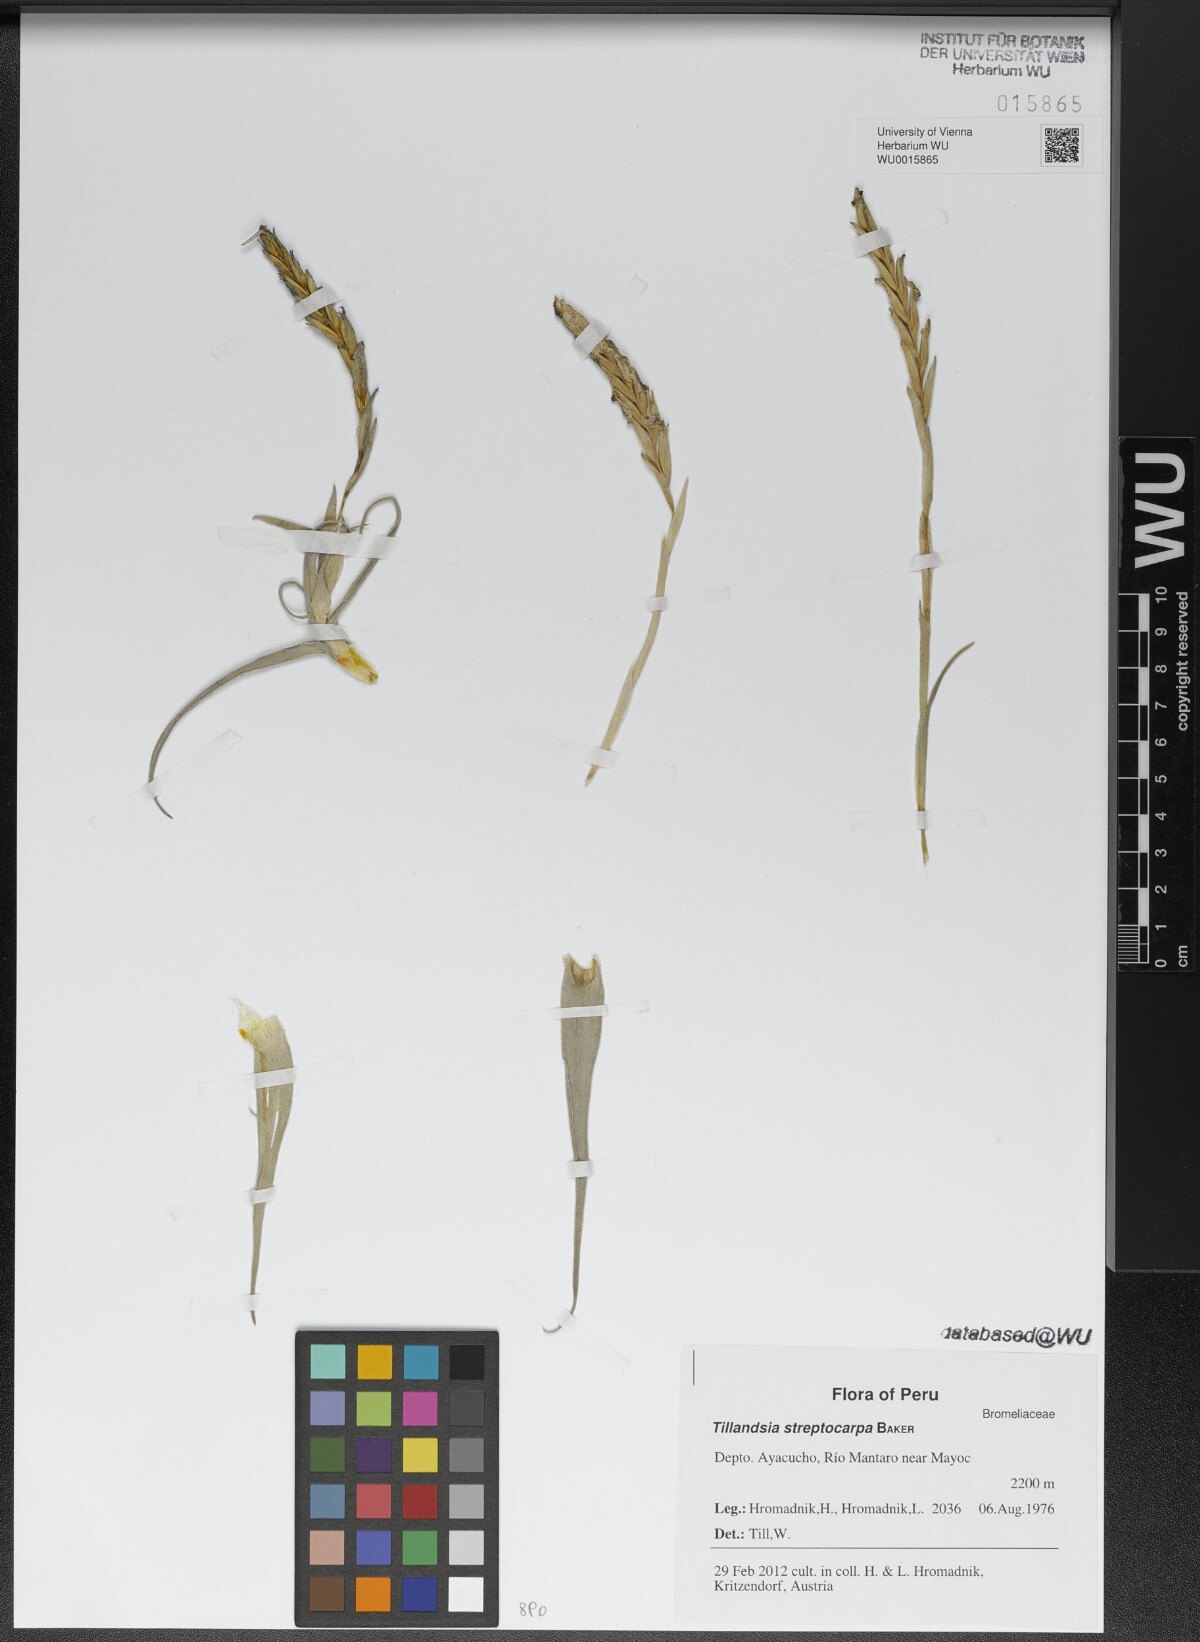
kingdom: Plantae
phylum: Tracheophyta
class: Liliopsida
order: Poales
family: Bromeliaceae
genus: Tillandsia
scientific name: Tillandsia streptocarpa
